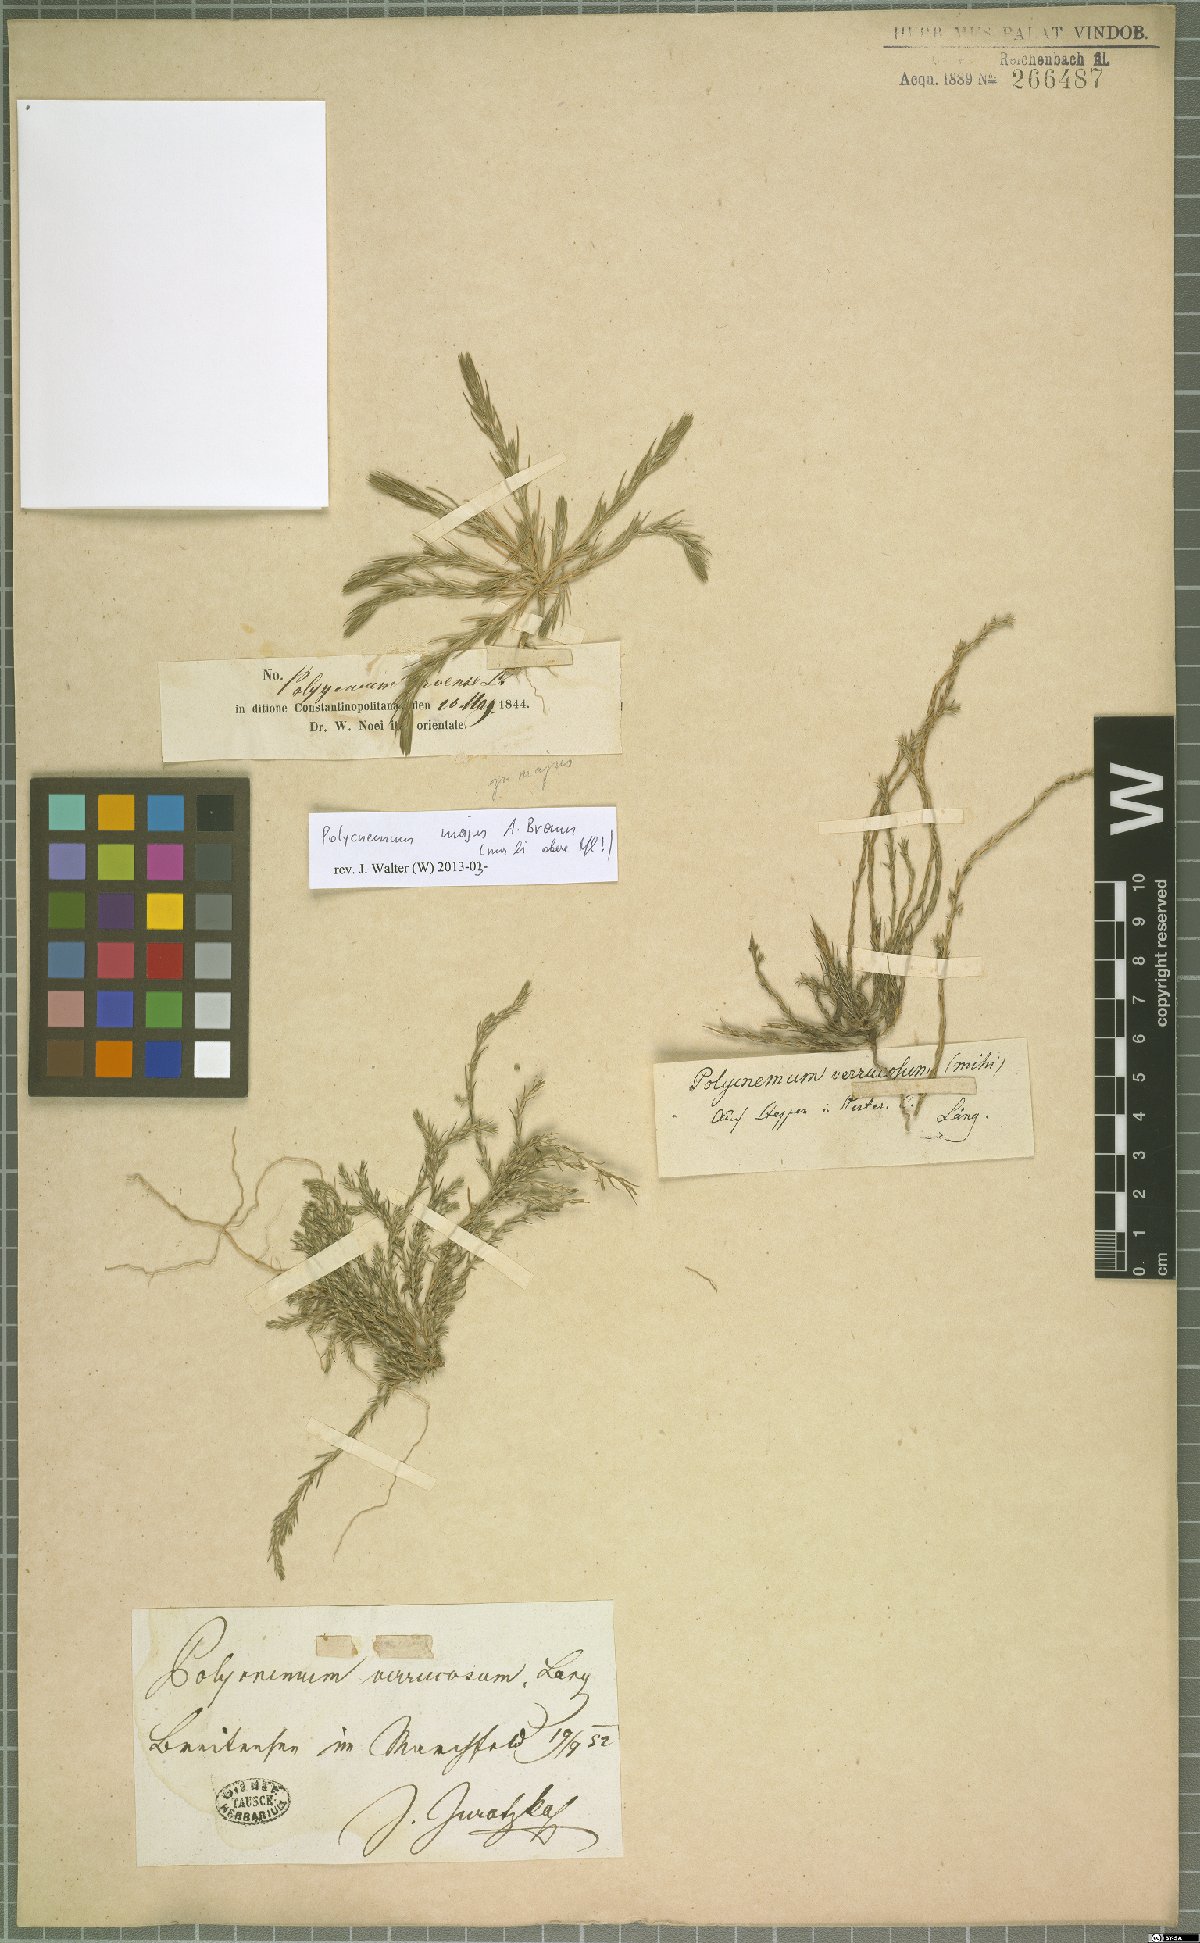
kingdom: Plantae
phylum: Tracheophyta
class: Magnoliopsida
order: Caryophyllales
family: Amaranthaceae
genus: Polycnemum
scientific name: Polycnemum verrucosum
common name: Warty needleleaf
